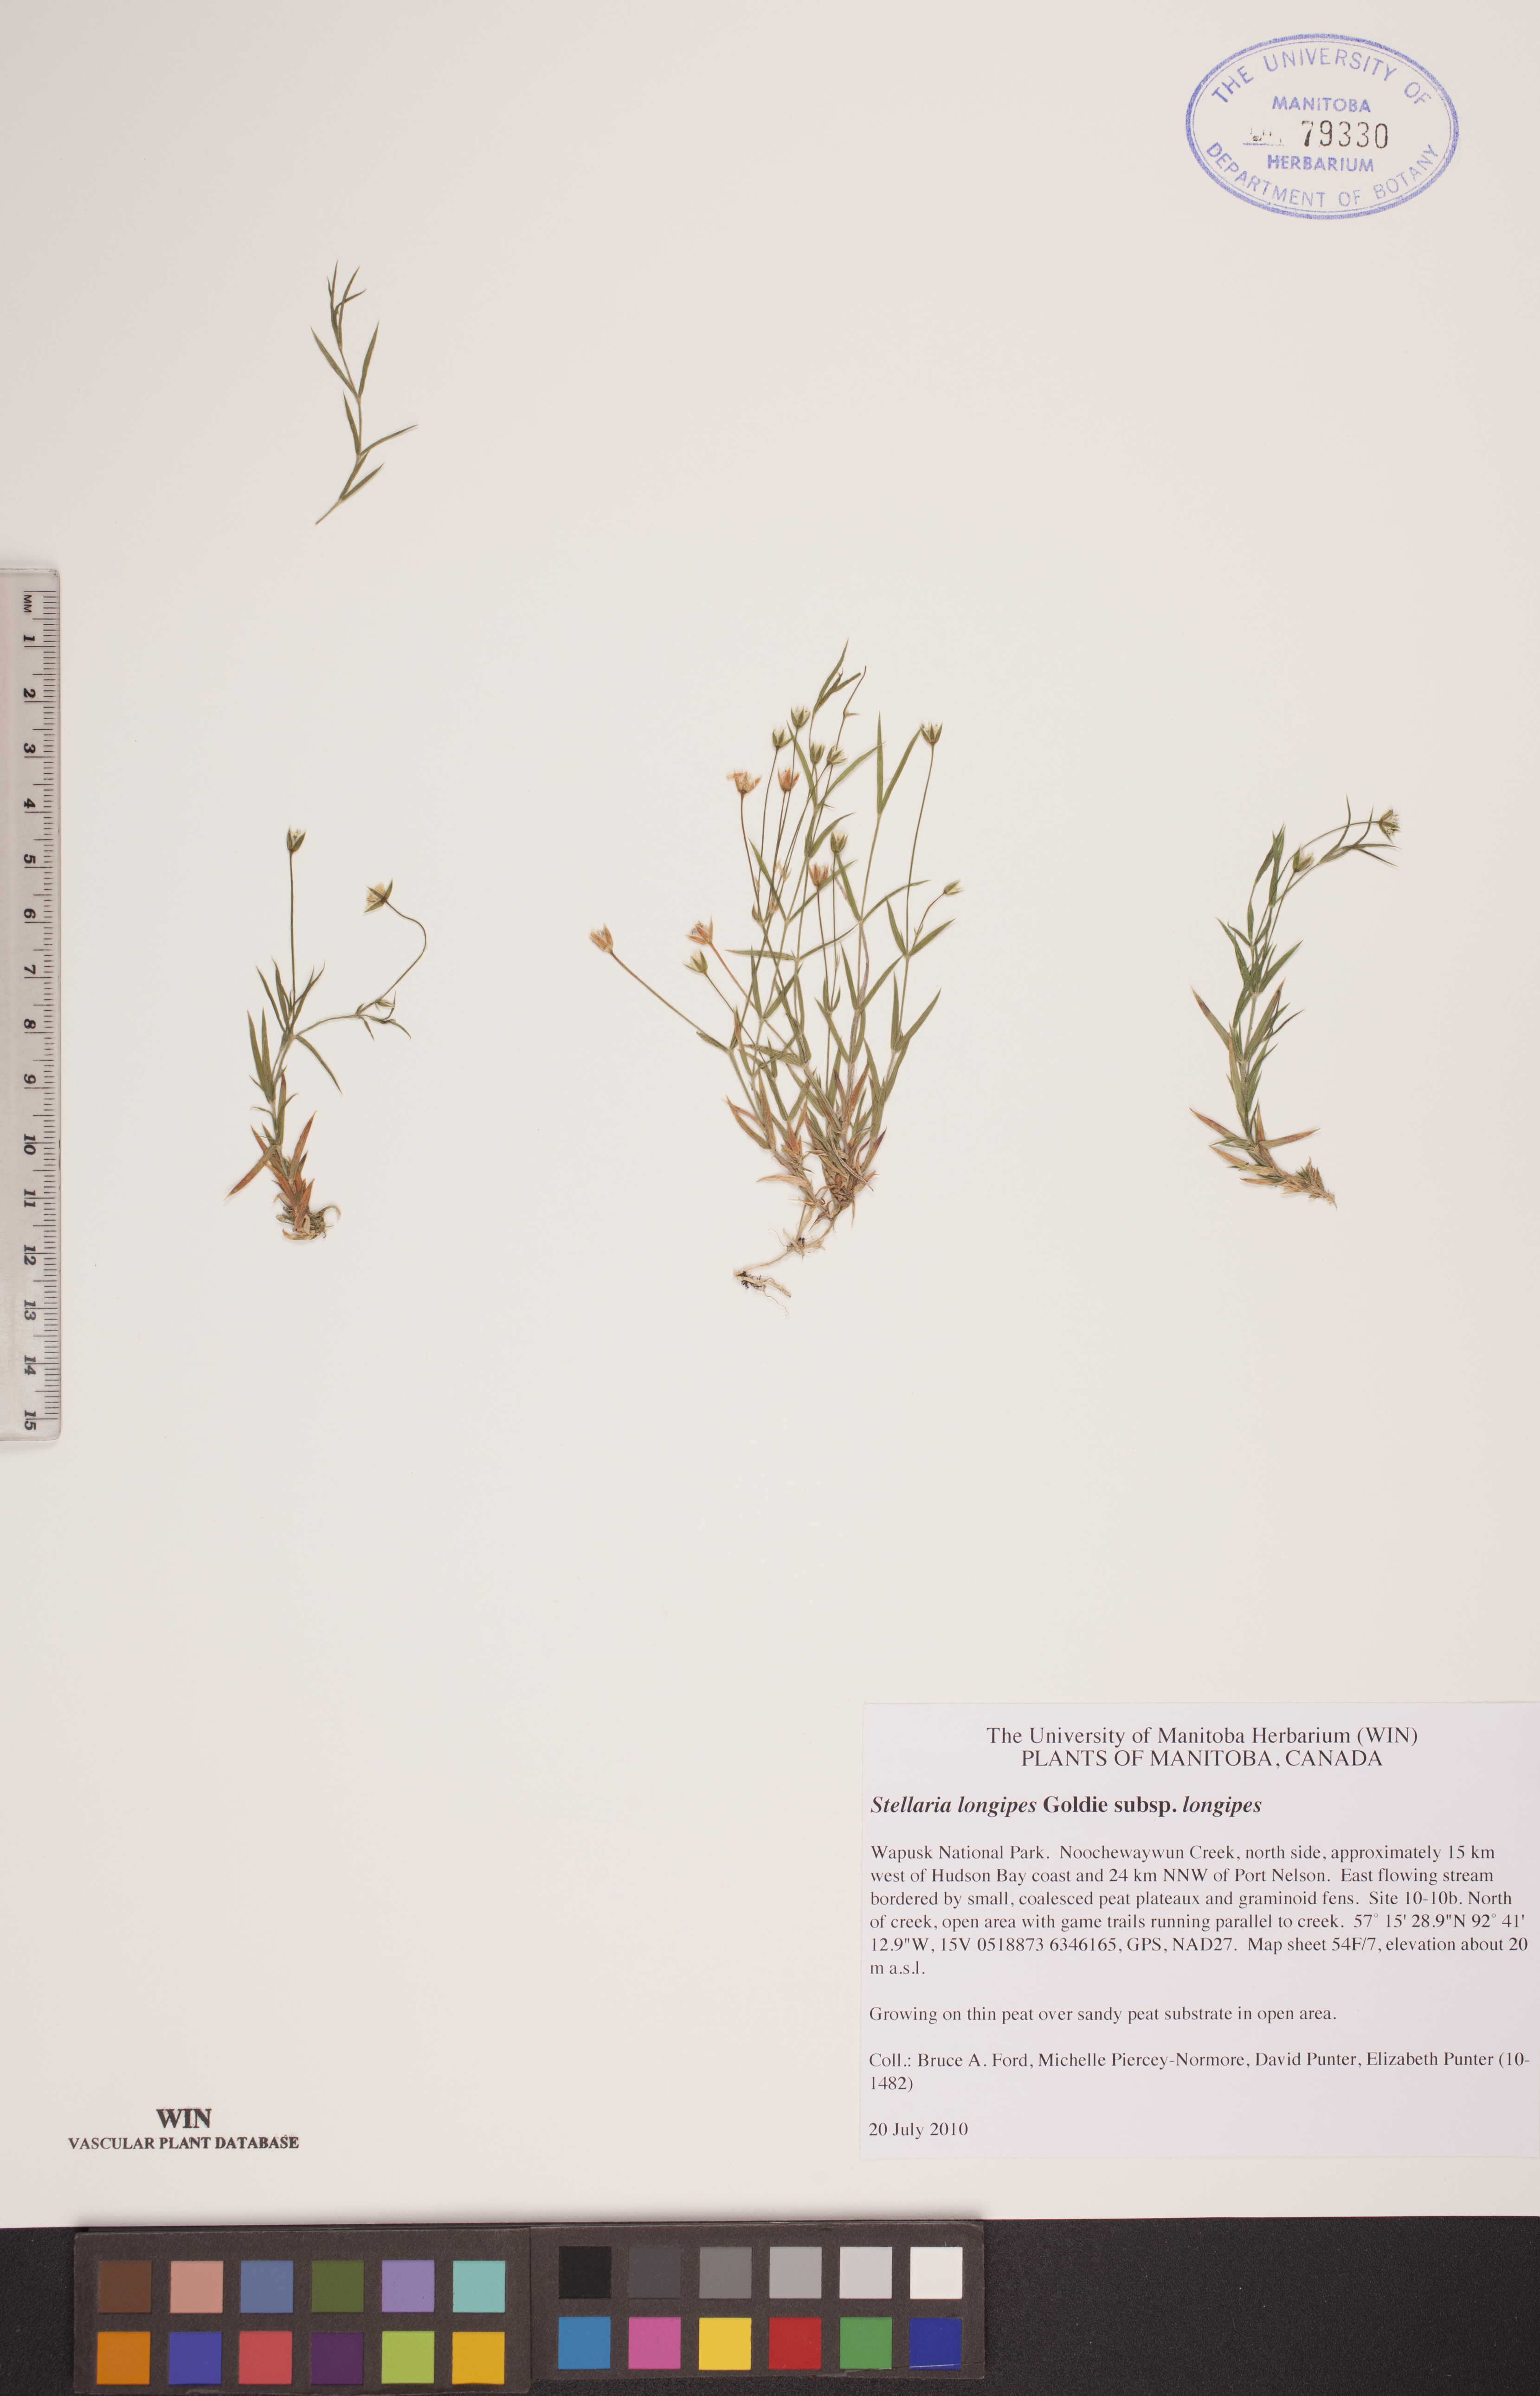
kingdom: Plantae
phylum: Tracheophyta
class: Magnoliopsida
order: Caryophyllales
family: Caryophyllaceae
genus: Stellaria
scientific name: Stellaria longipes
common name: Goldie's starwort
